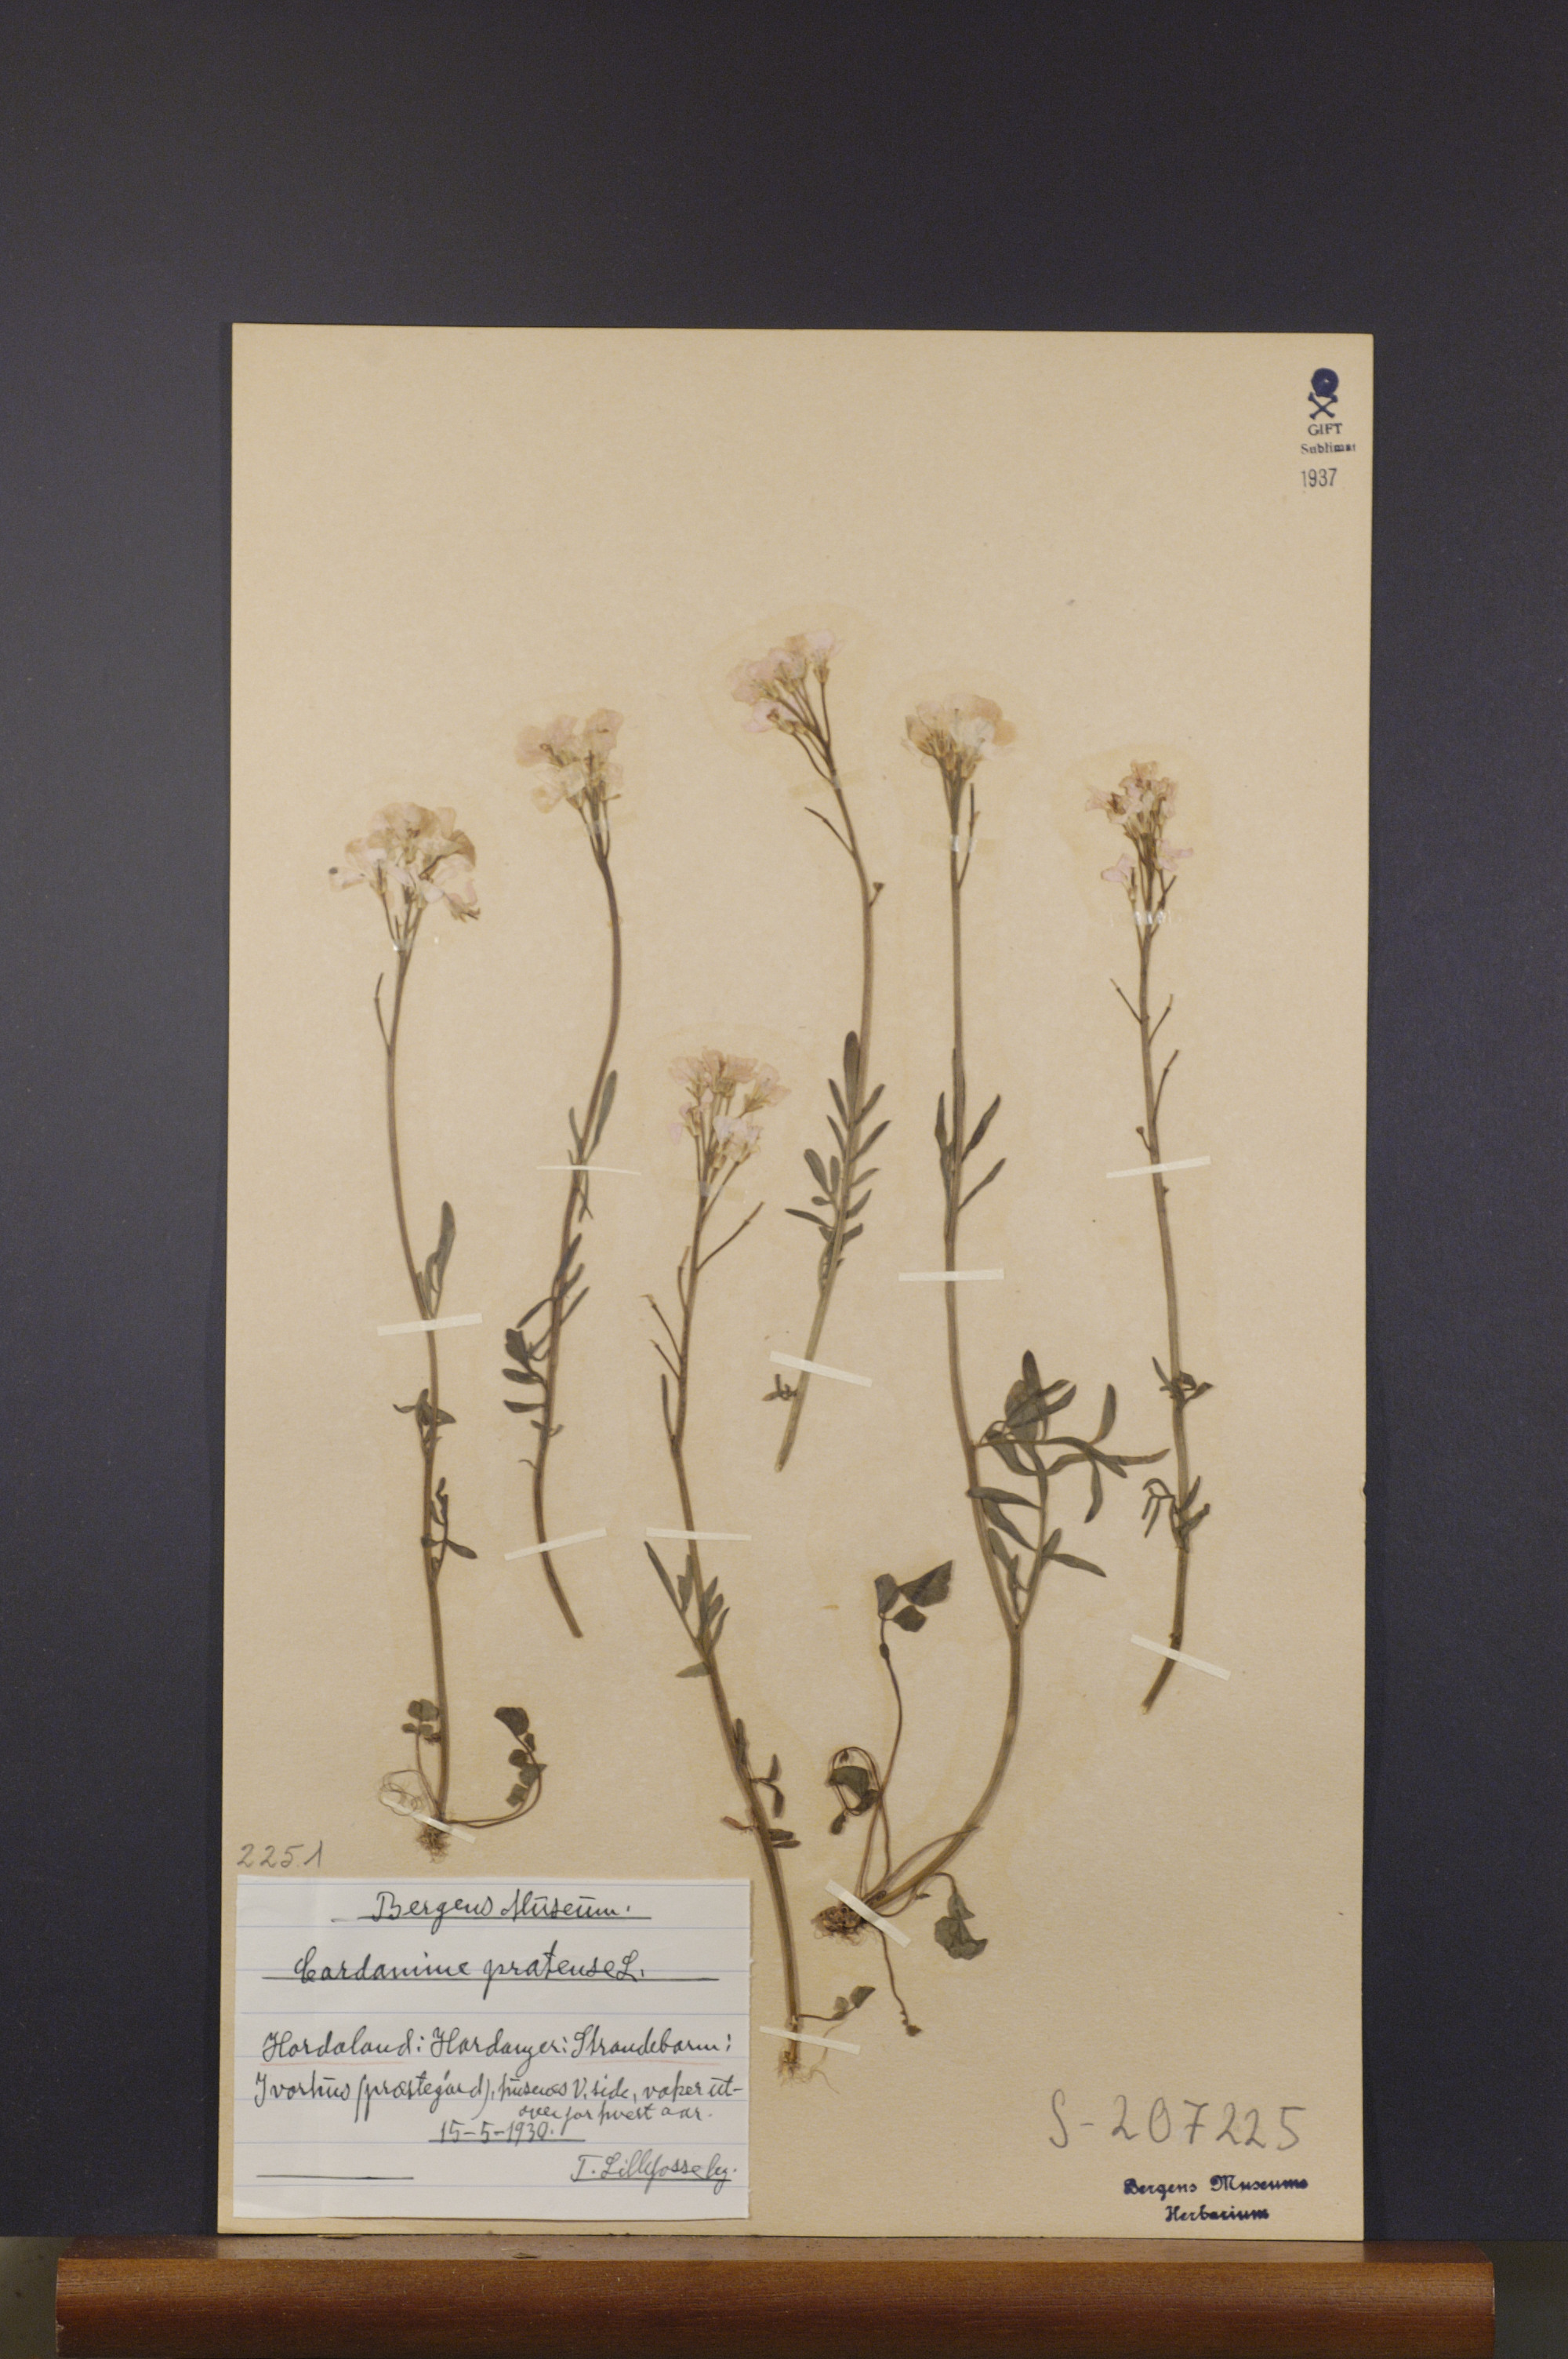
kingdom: Plantae
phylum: Tracheophyta
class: Magnoliopsida
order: Brassicales
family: Brassicaceae
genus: Cardamine
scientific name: Cardamine pratensis
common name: Cuckoo flower
